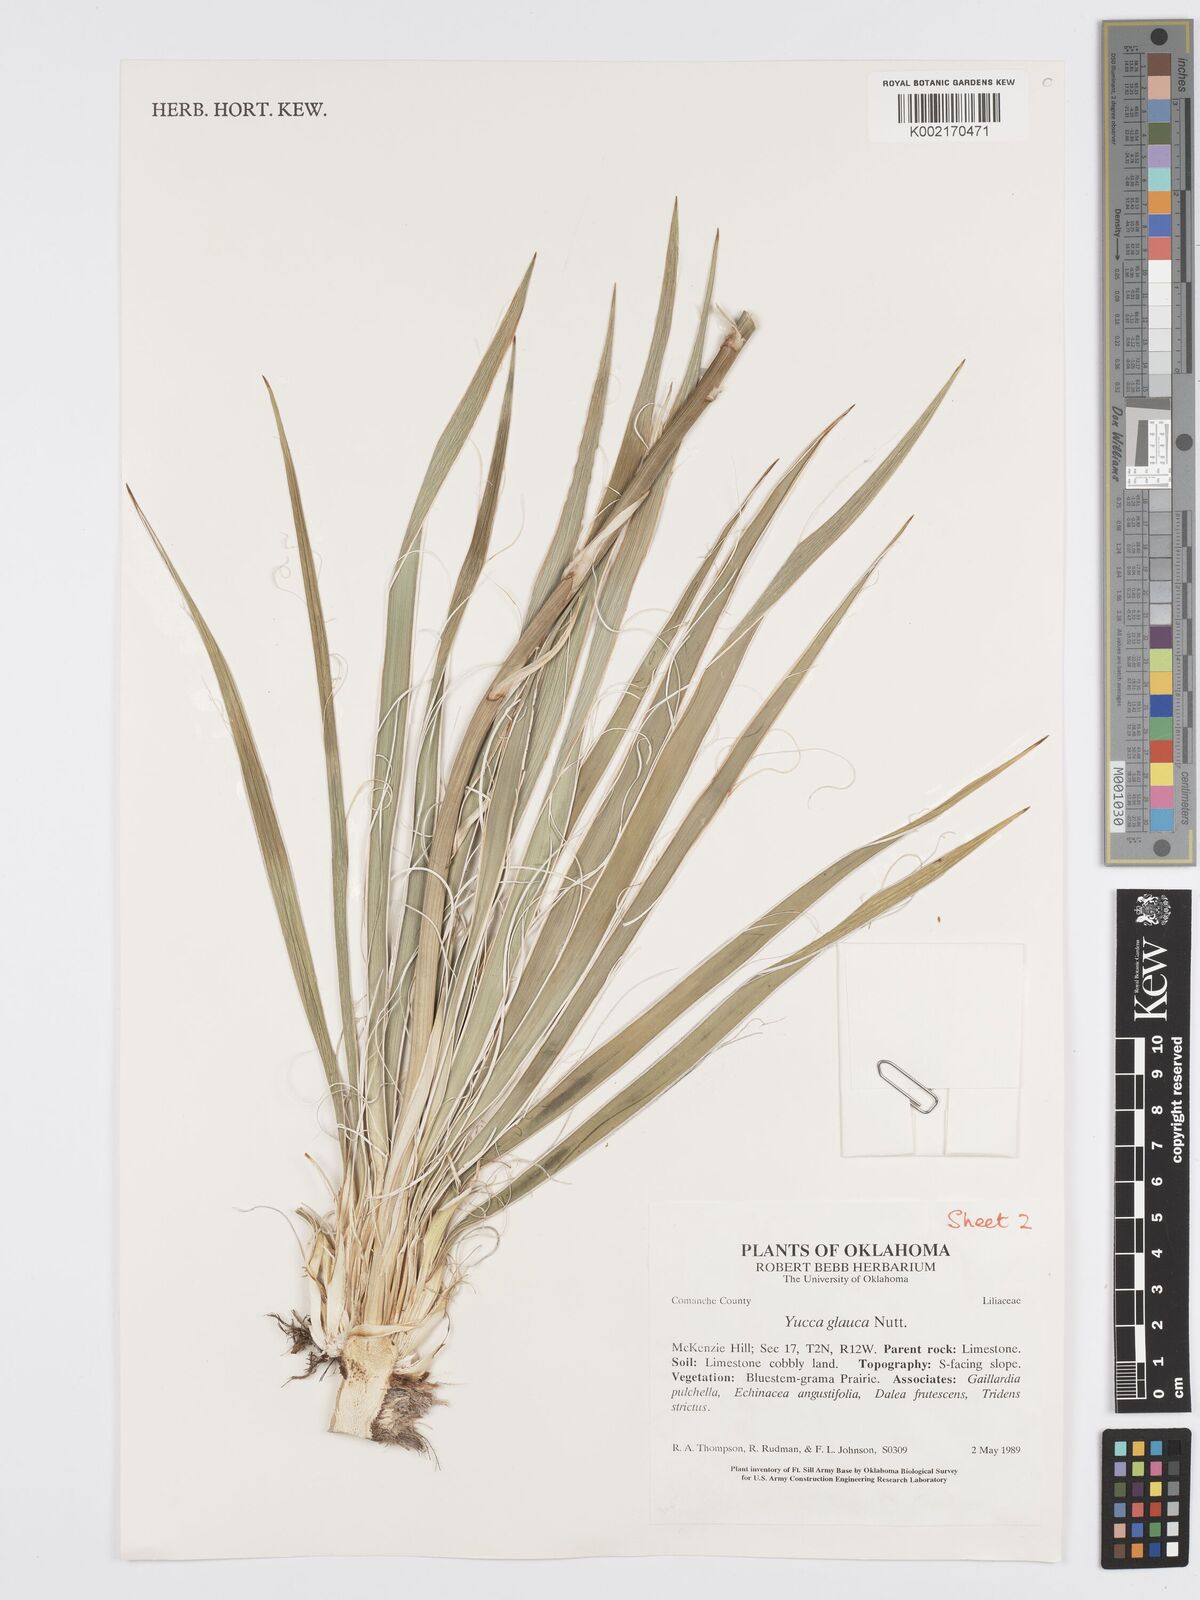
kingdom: Plantae
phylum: Tracheophyta
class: Liliopsida
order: Asparagales
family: Asparagaceae
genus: Yucca
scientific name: Yucca glauca
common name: Great plains yucca
